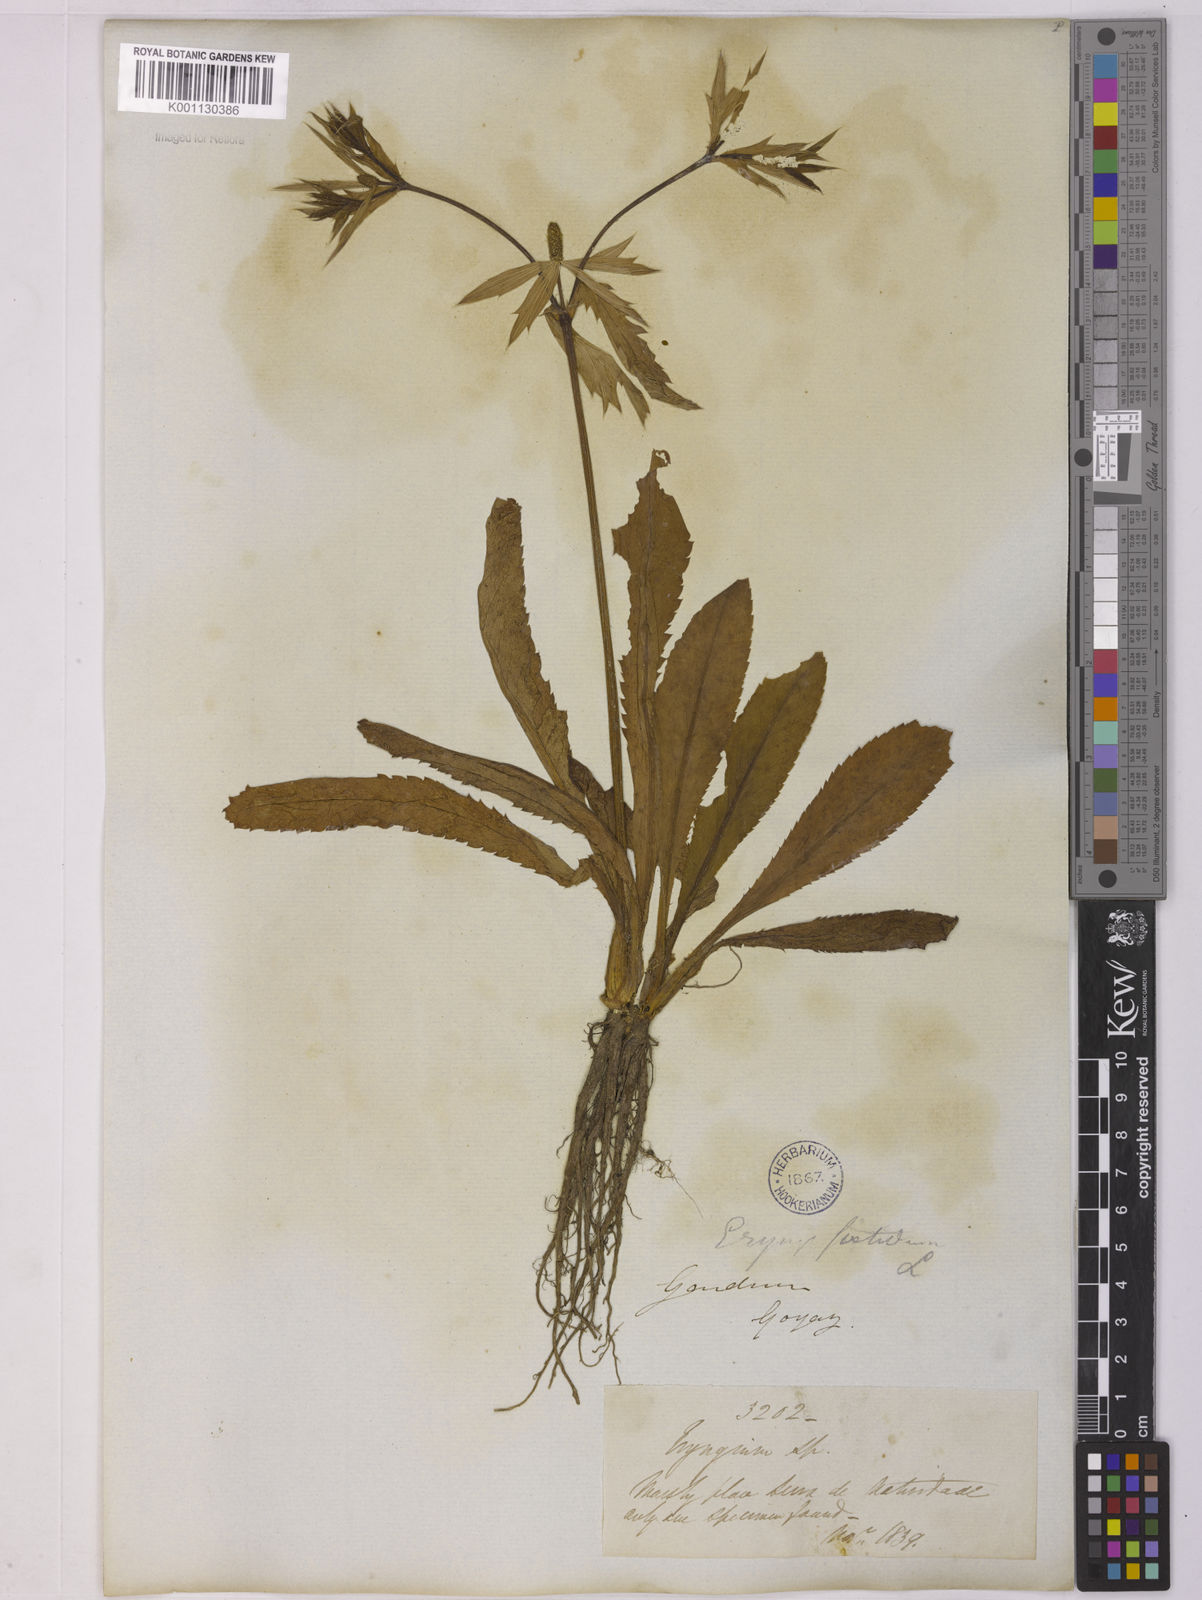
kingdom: Plantae
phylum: Tracheophyta
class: Magnoliopsida
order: Apiales
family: Apiaceae
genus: Eryngium
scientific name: Eryngium foetidum
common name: Fitweed
